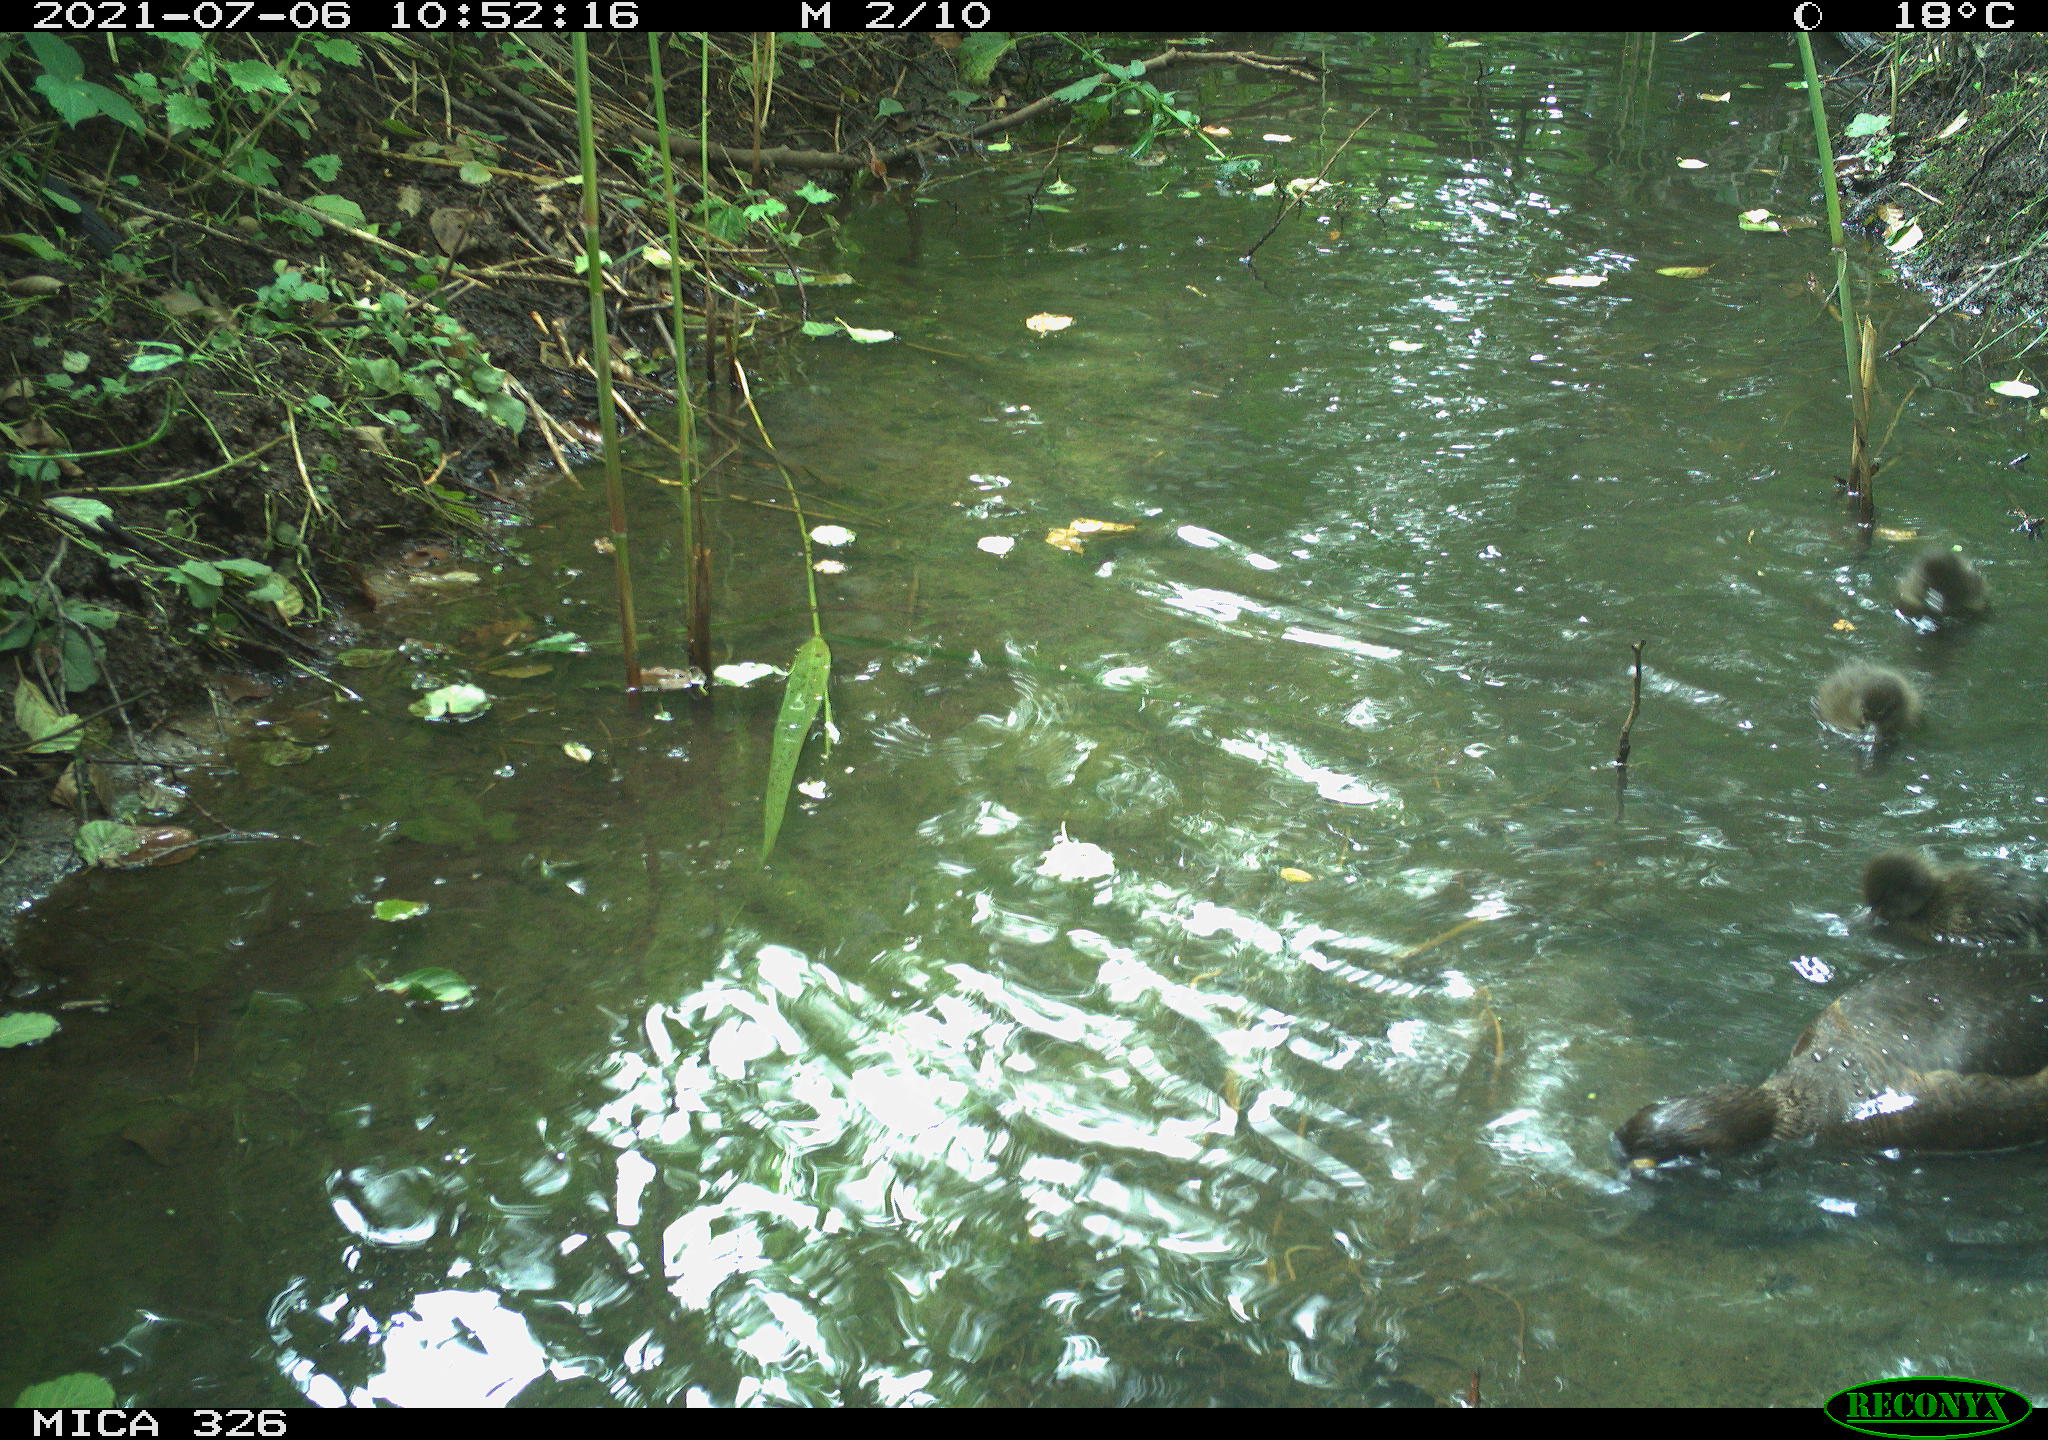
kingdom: Animalia
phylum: Chordata
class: Aves
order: Anseriformes
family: Anatidae
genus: Aythya
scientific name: Aythya fuligula
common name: Tufted duck
